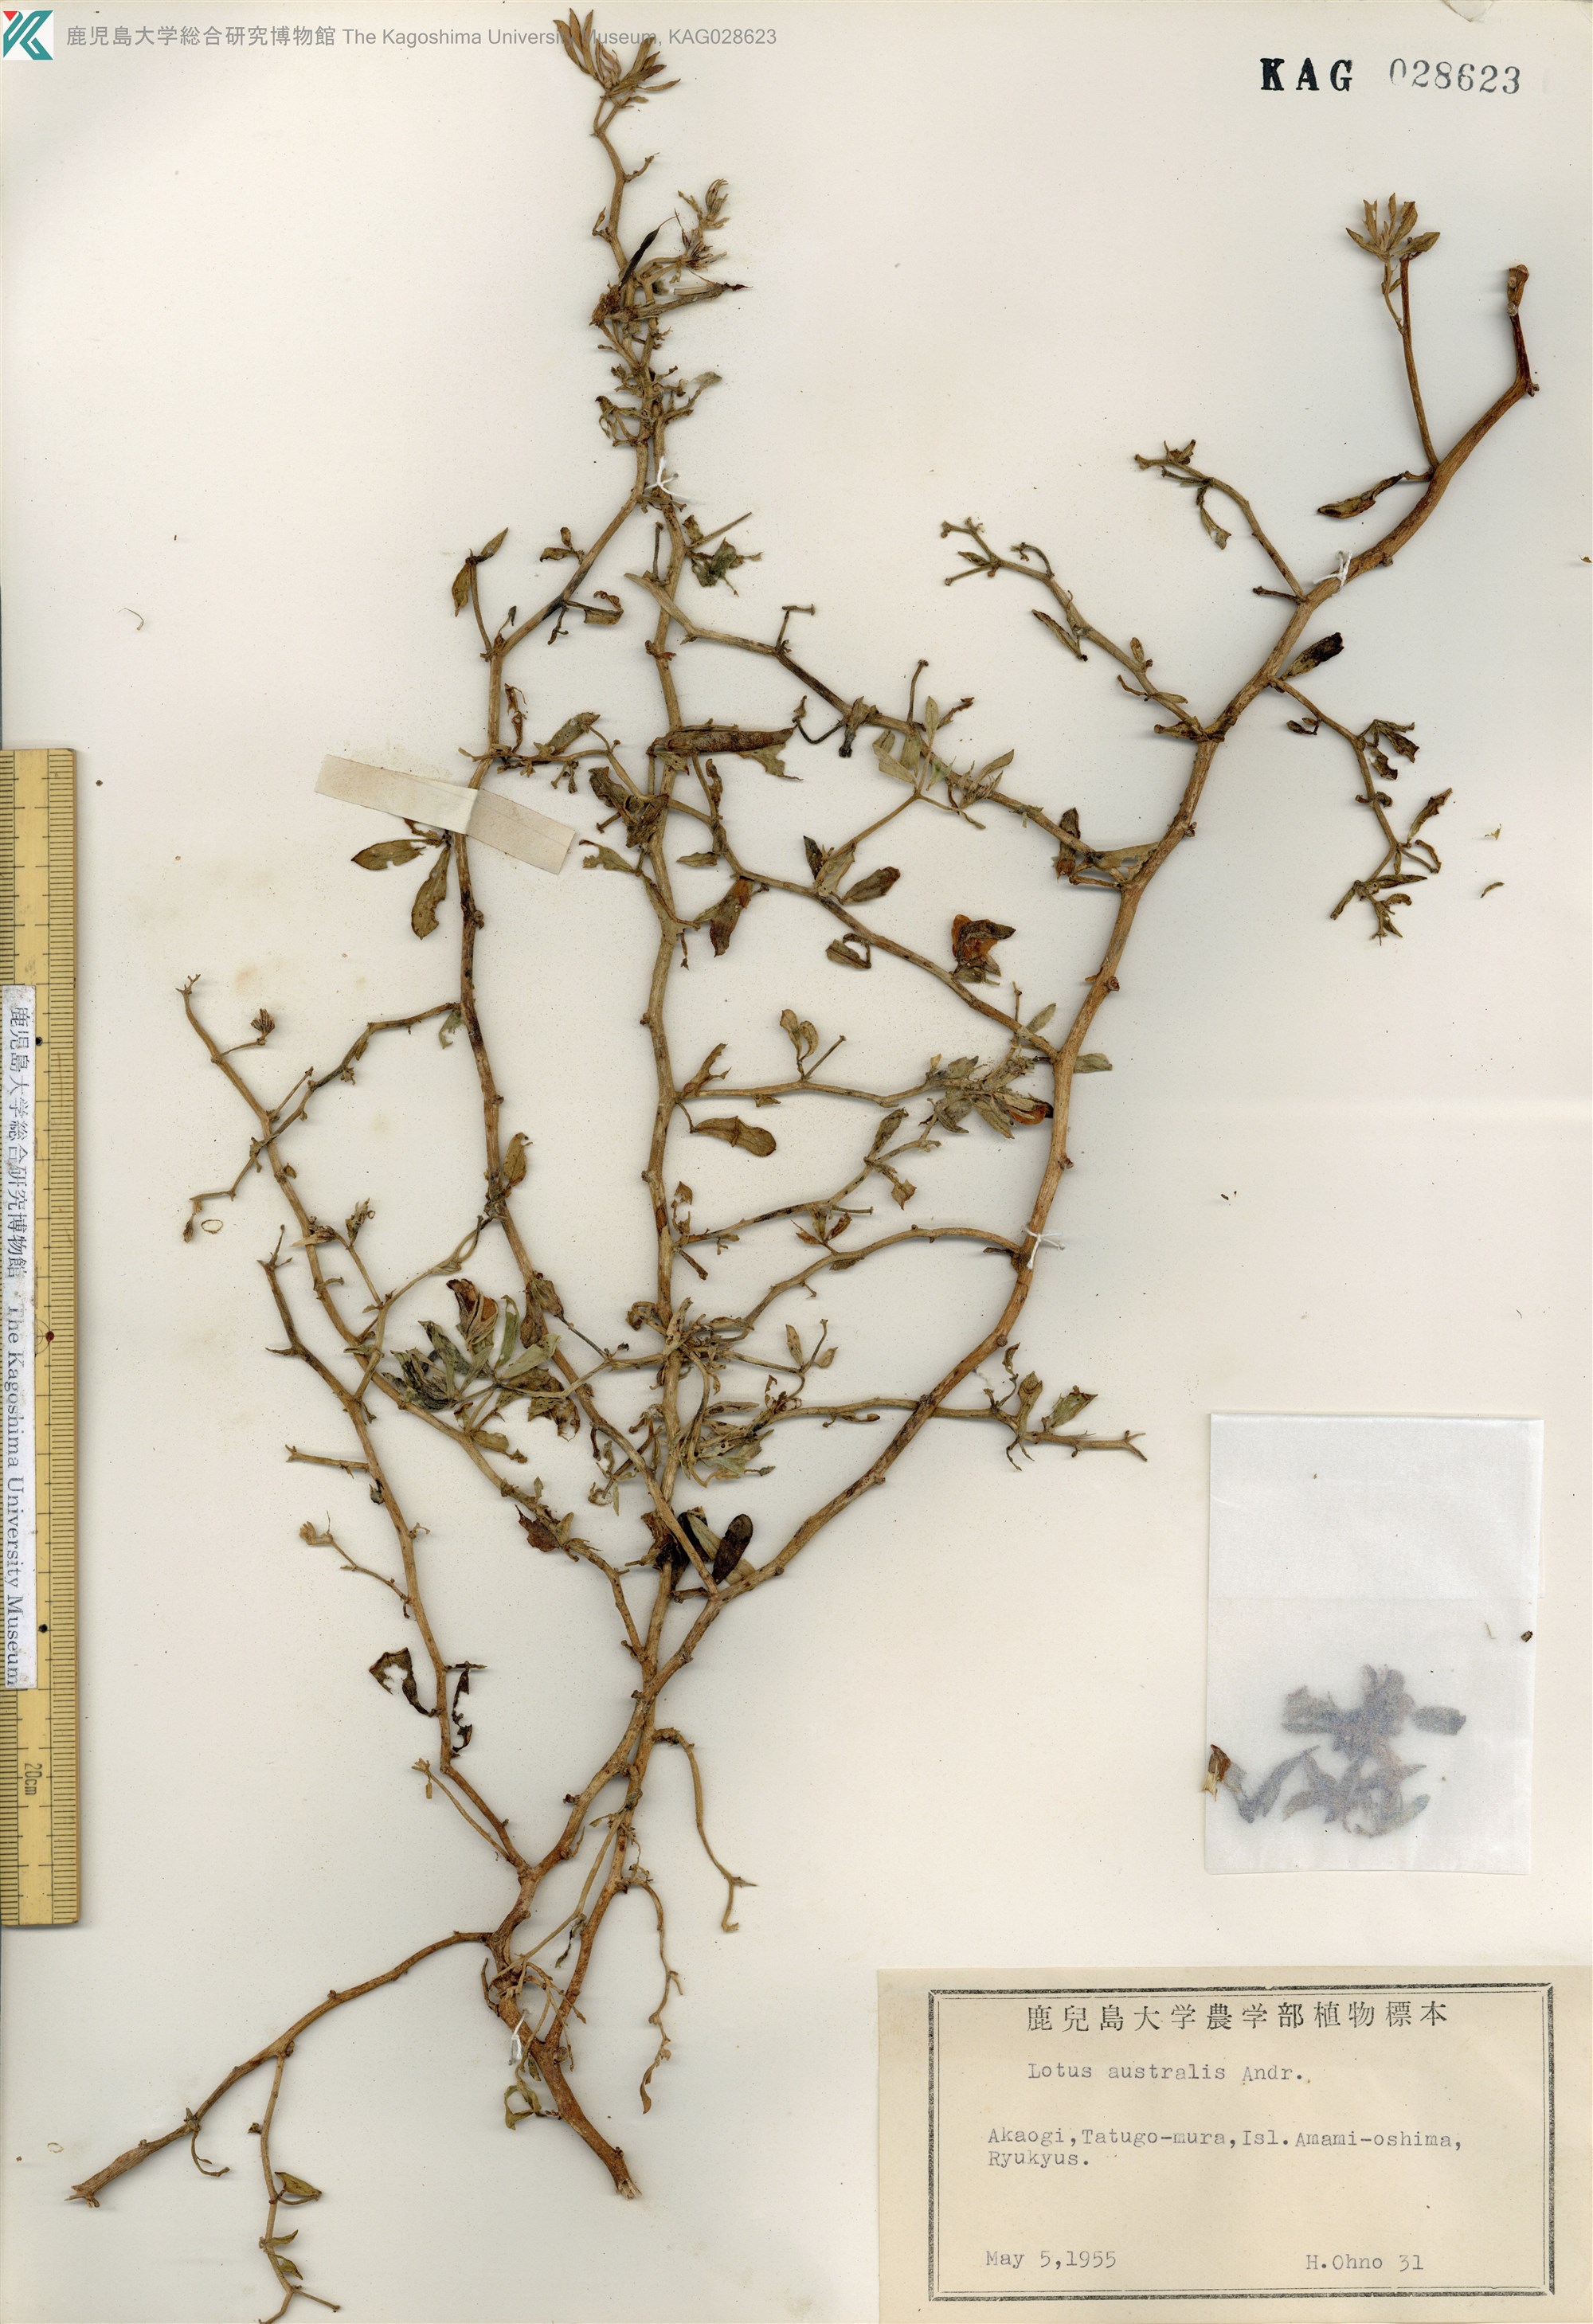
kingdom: Plantae
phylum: Tracheophyta
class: Magnoliopsida
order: Fabales
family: Fabaceae
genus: Lotus
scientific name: Lotus taitungensis
